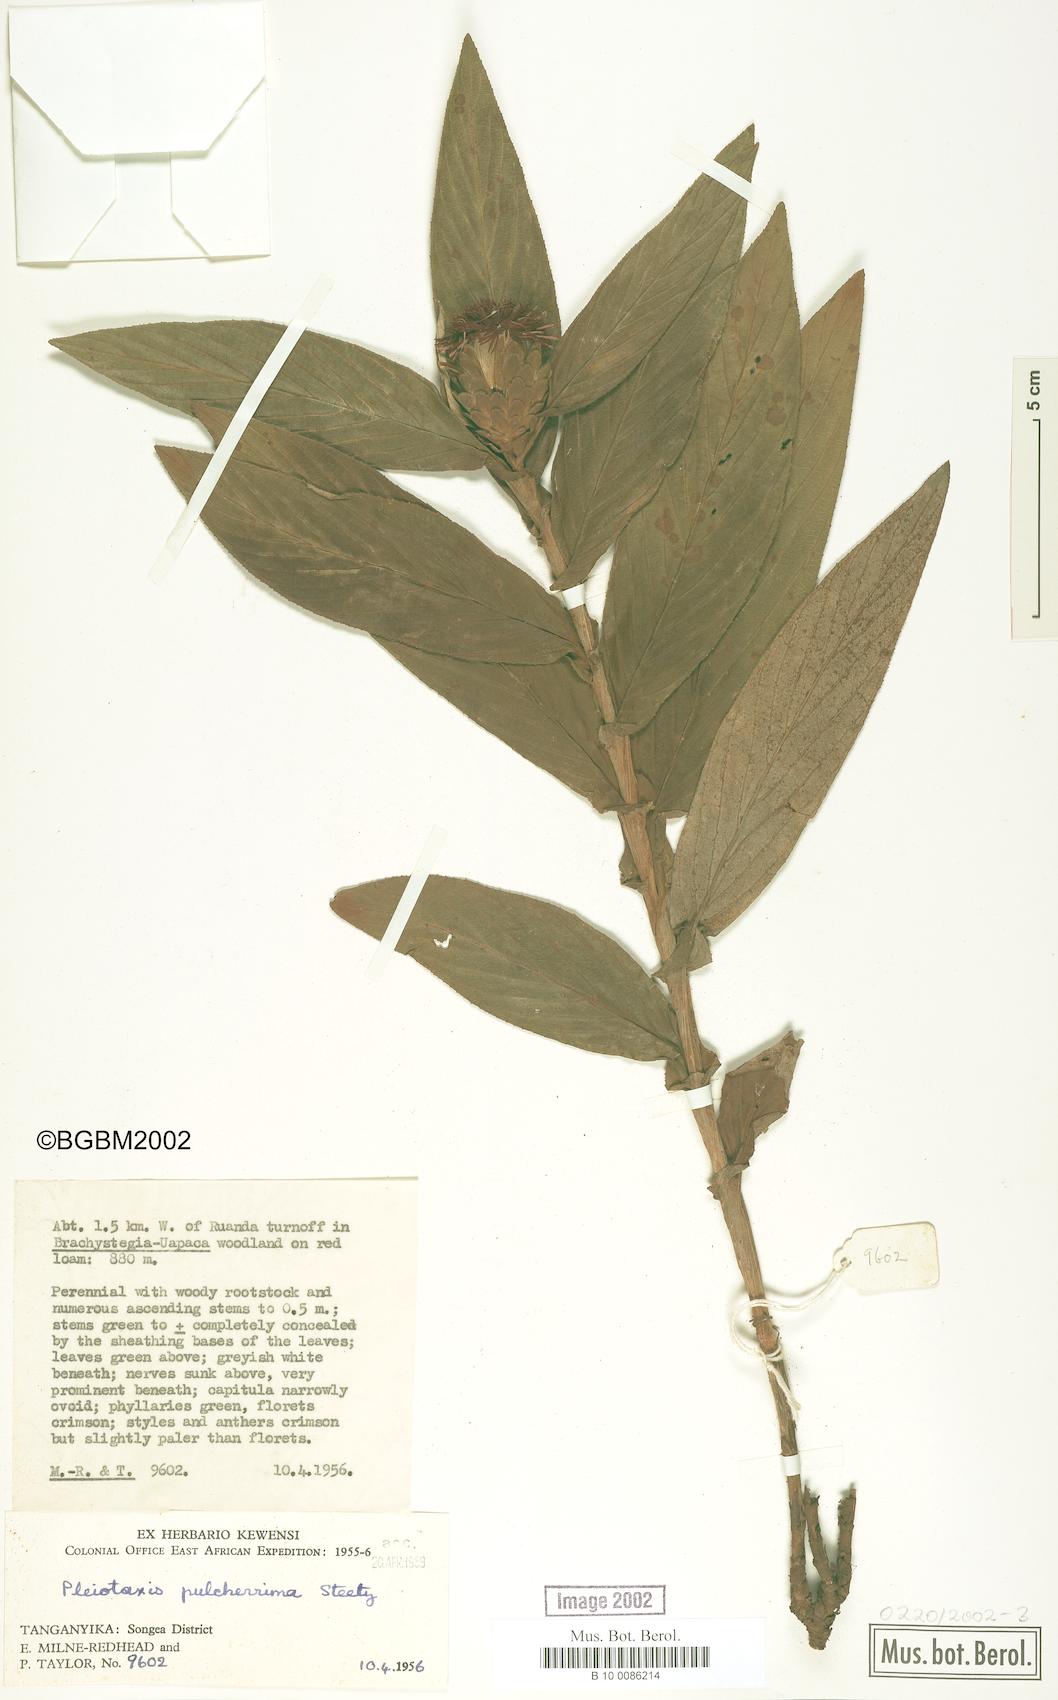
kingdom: Plantae
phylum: Tracheophyta
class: Magnoliopsida
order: Asterales
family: Asteraceae
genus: Pleiotaxis
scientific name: Pleiotaxis pulcherrima
